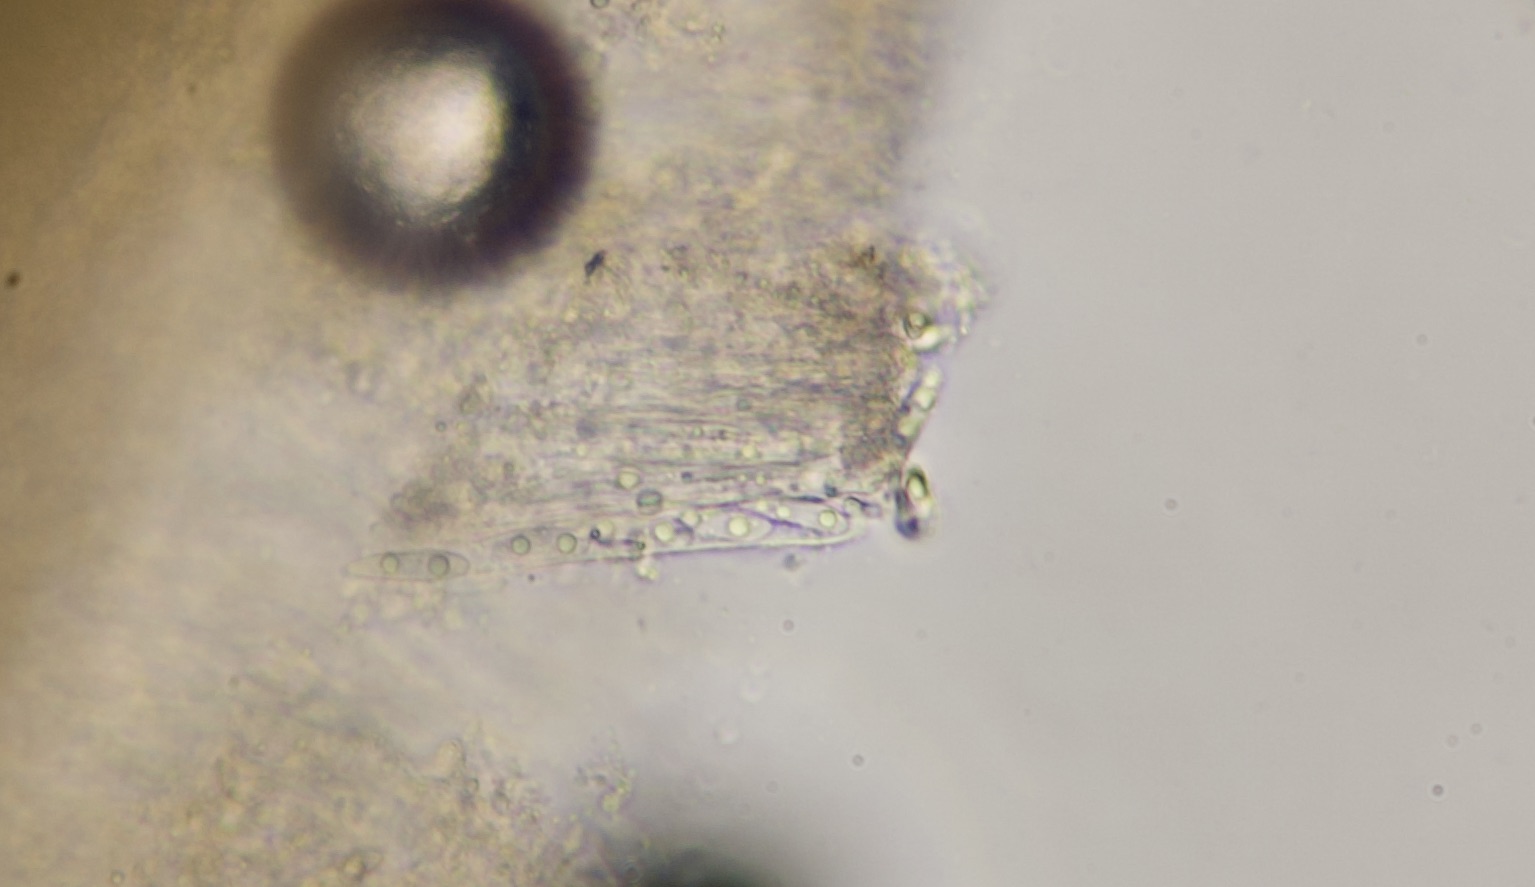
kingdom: Fungi
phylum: Ascomycota
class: Leotiomycetes
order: Helotiales
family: Helotiaceae
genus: Hymenoscyphus
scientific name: Hymenoscyphus fructigenus
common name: frugt-stilkskive
